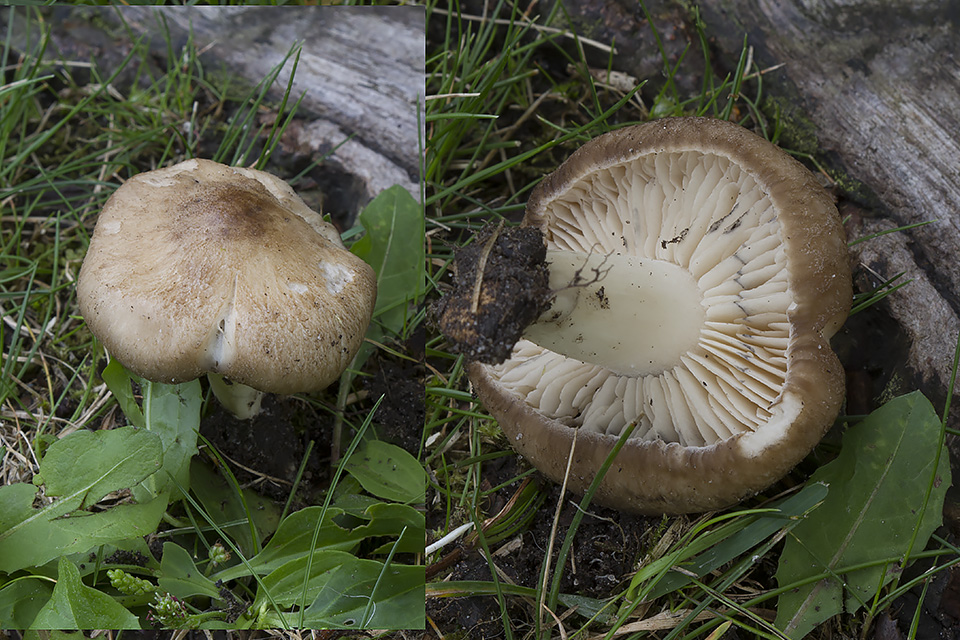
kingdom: Fungi
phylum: Basidiomycota
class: Agaricomycetes
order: Agaricales
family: Lyophyllaceae
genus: Lyophyllum
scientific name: Lyophyllum paelochroum
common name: blånende gråblad
